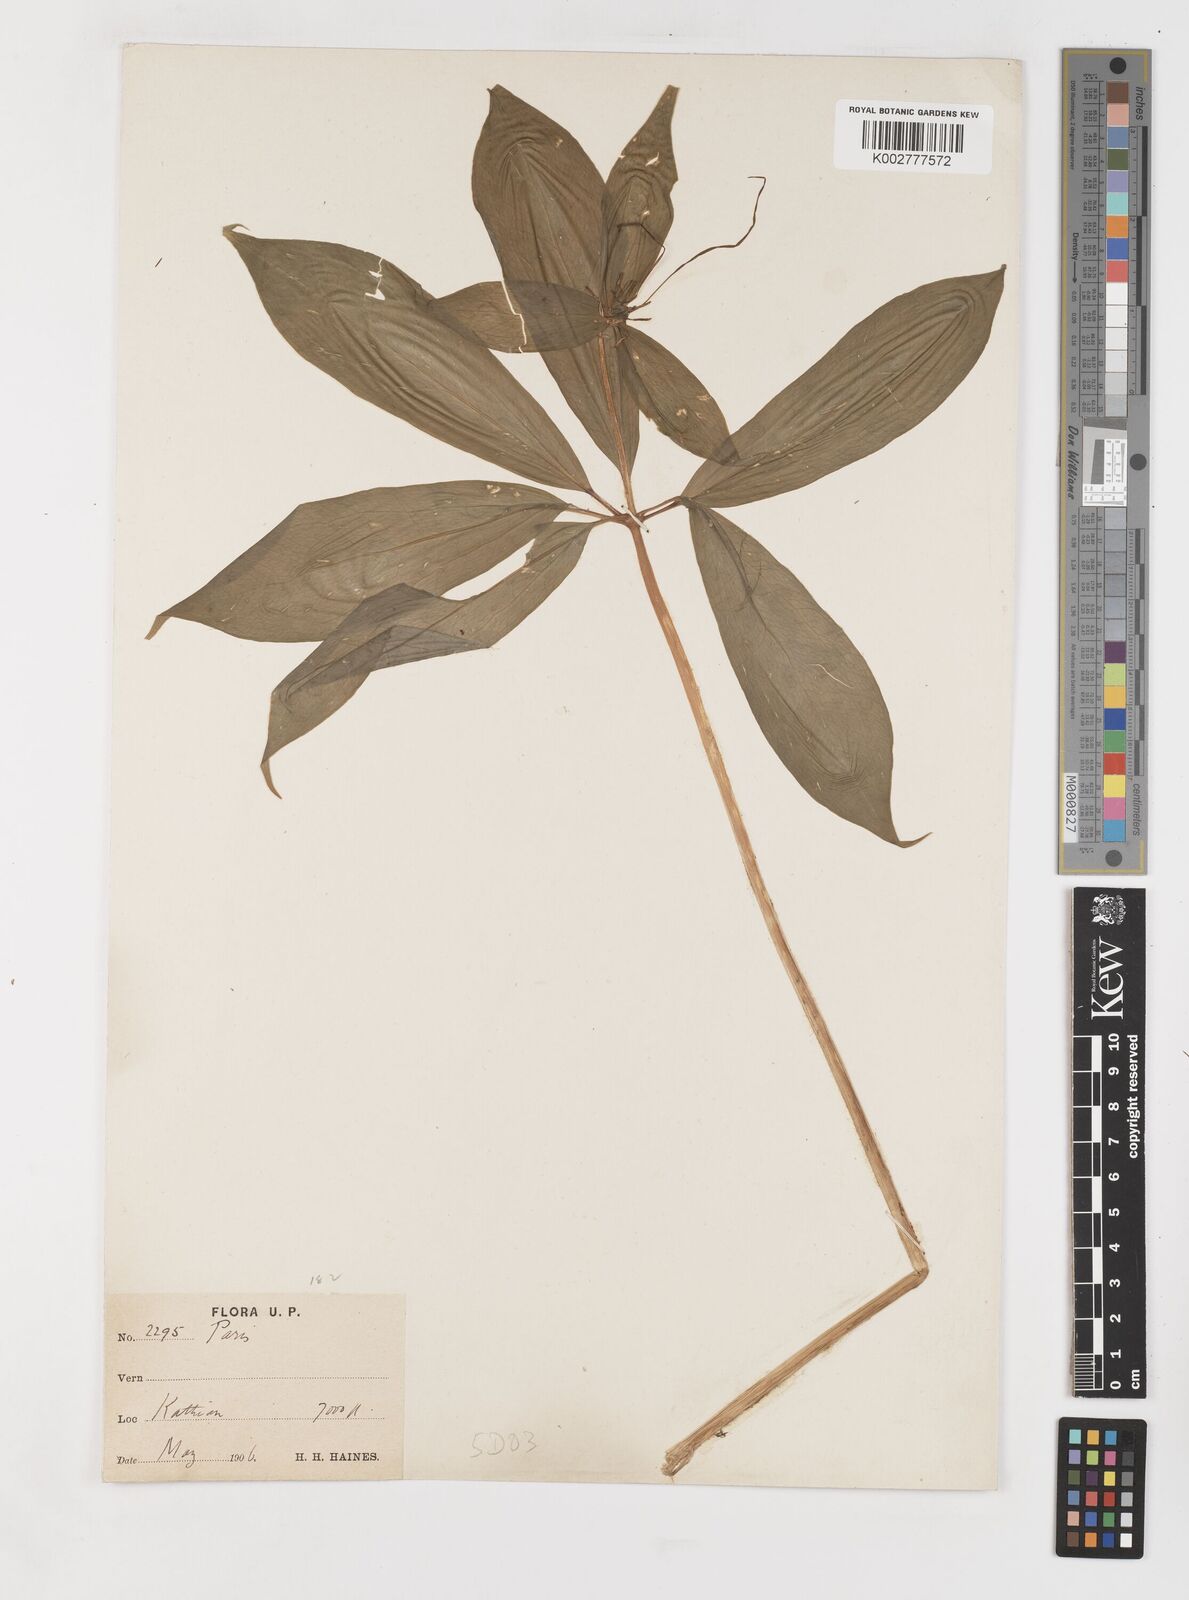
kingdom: Plantae
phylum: Tracheophyta
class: Liliopsida
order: Liliales
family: Melanthiaceae
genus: Paris
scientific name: Paris polyphylla
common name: Love apple
